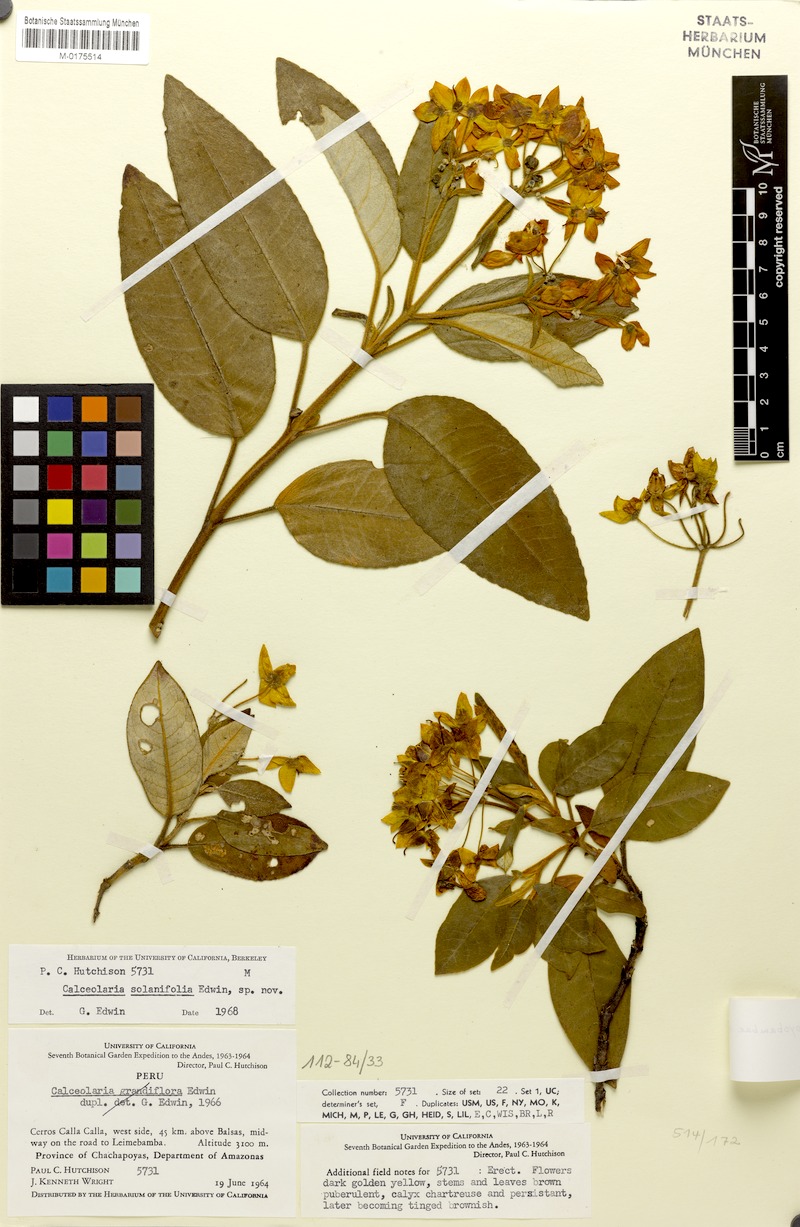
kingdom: Plantae
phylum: Tracheophyta
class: Magnoliopsida
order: Lamiales
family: Calceolariaceae
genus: Calceolaria
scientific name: Calceolaria moyobambae
